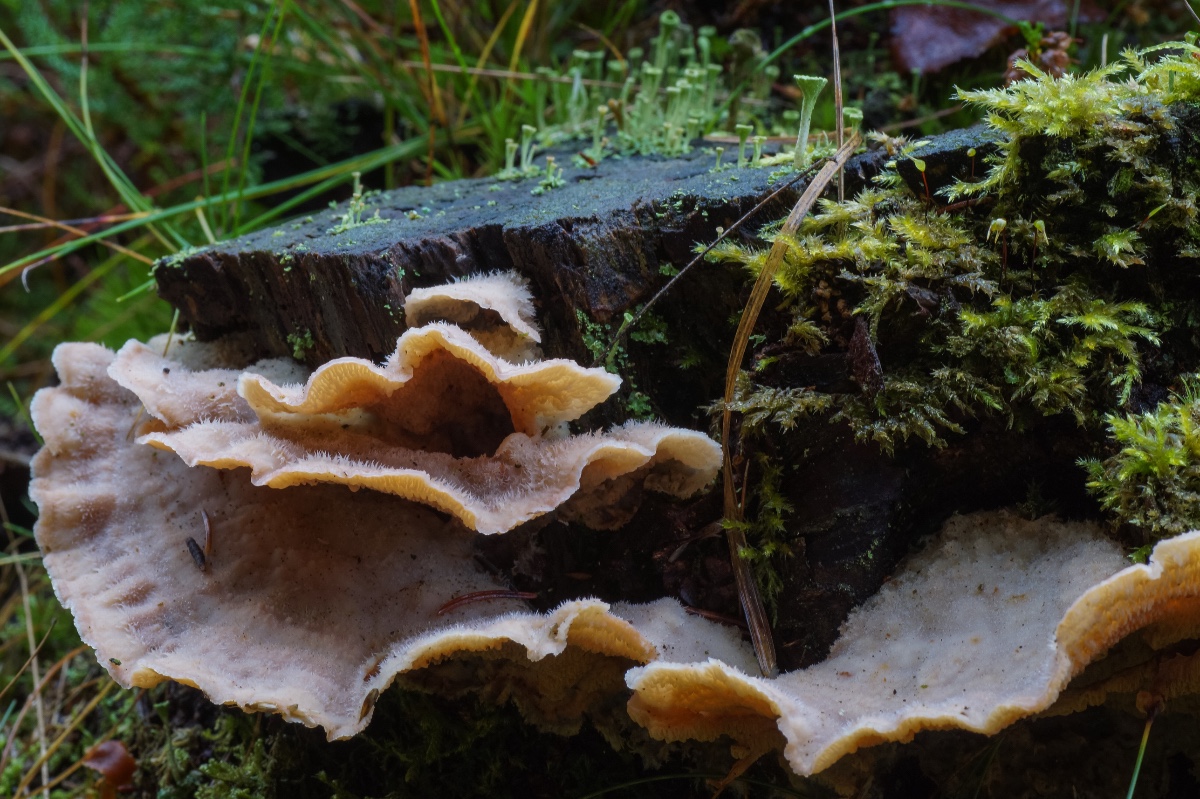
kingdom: Fungi
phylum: Basidiomycota
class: Agaricomycetes
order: Polyporales
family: Meruliaceae
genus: Phlebia
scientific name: Phlebia tremellosa
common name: bævrende åresvamp
